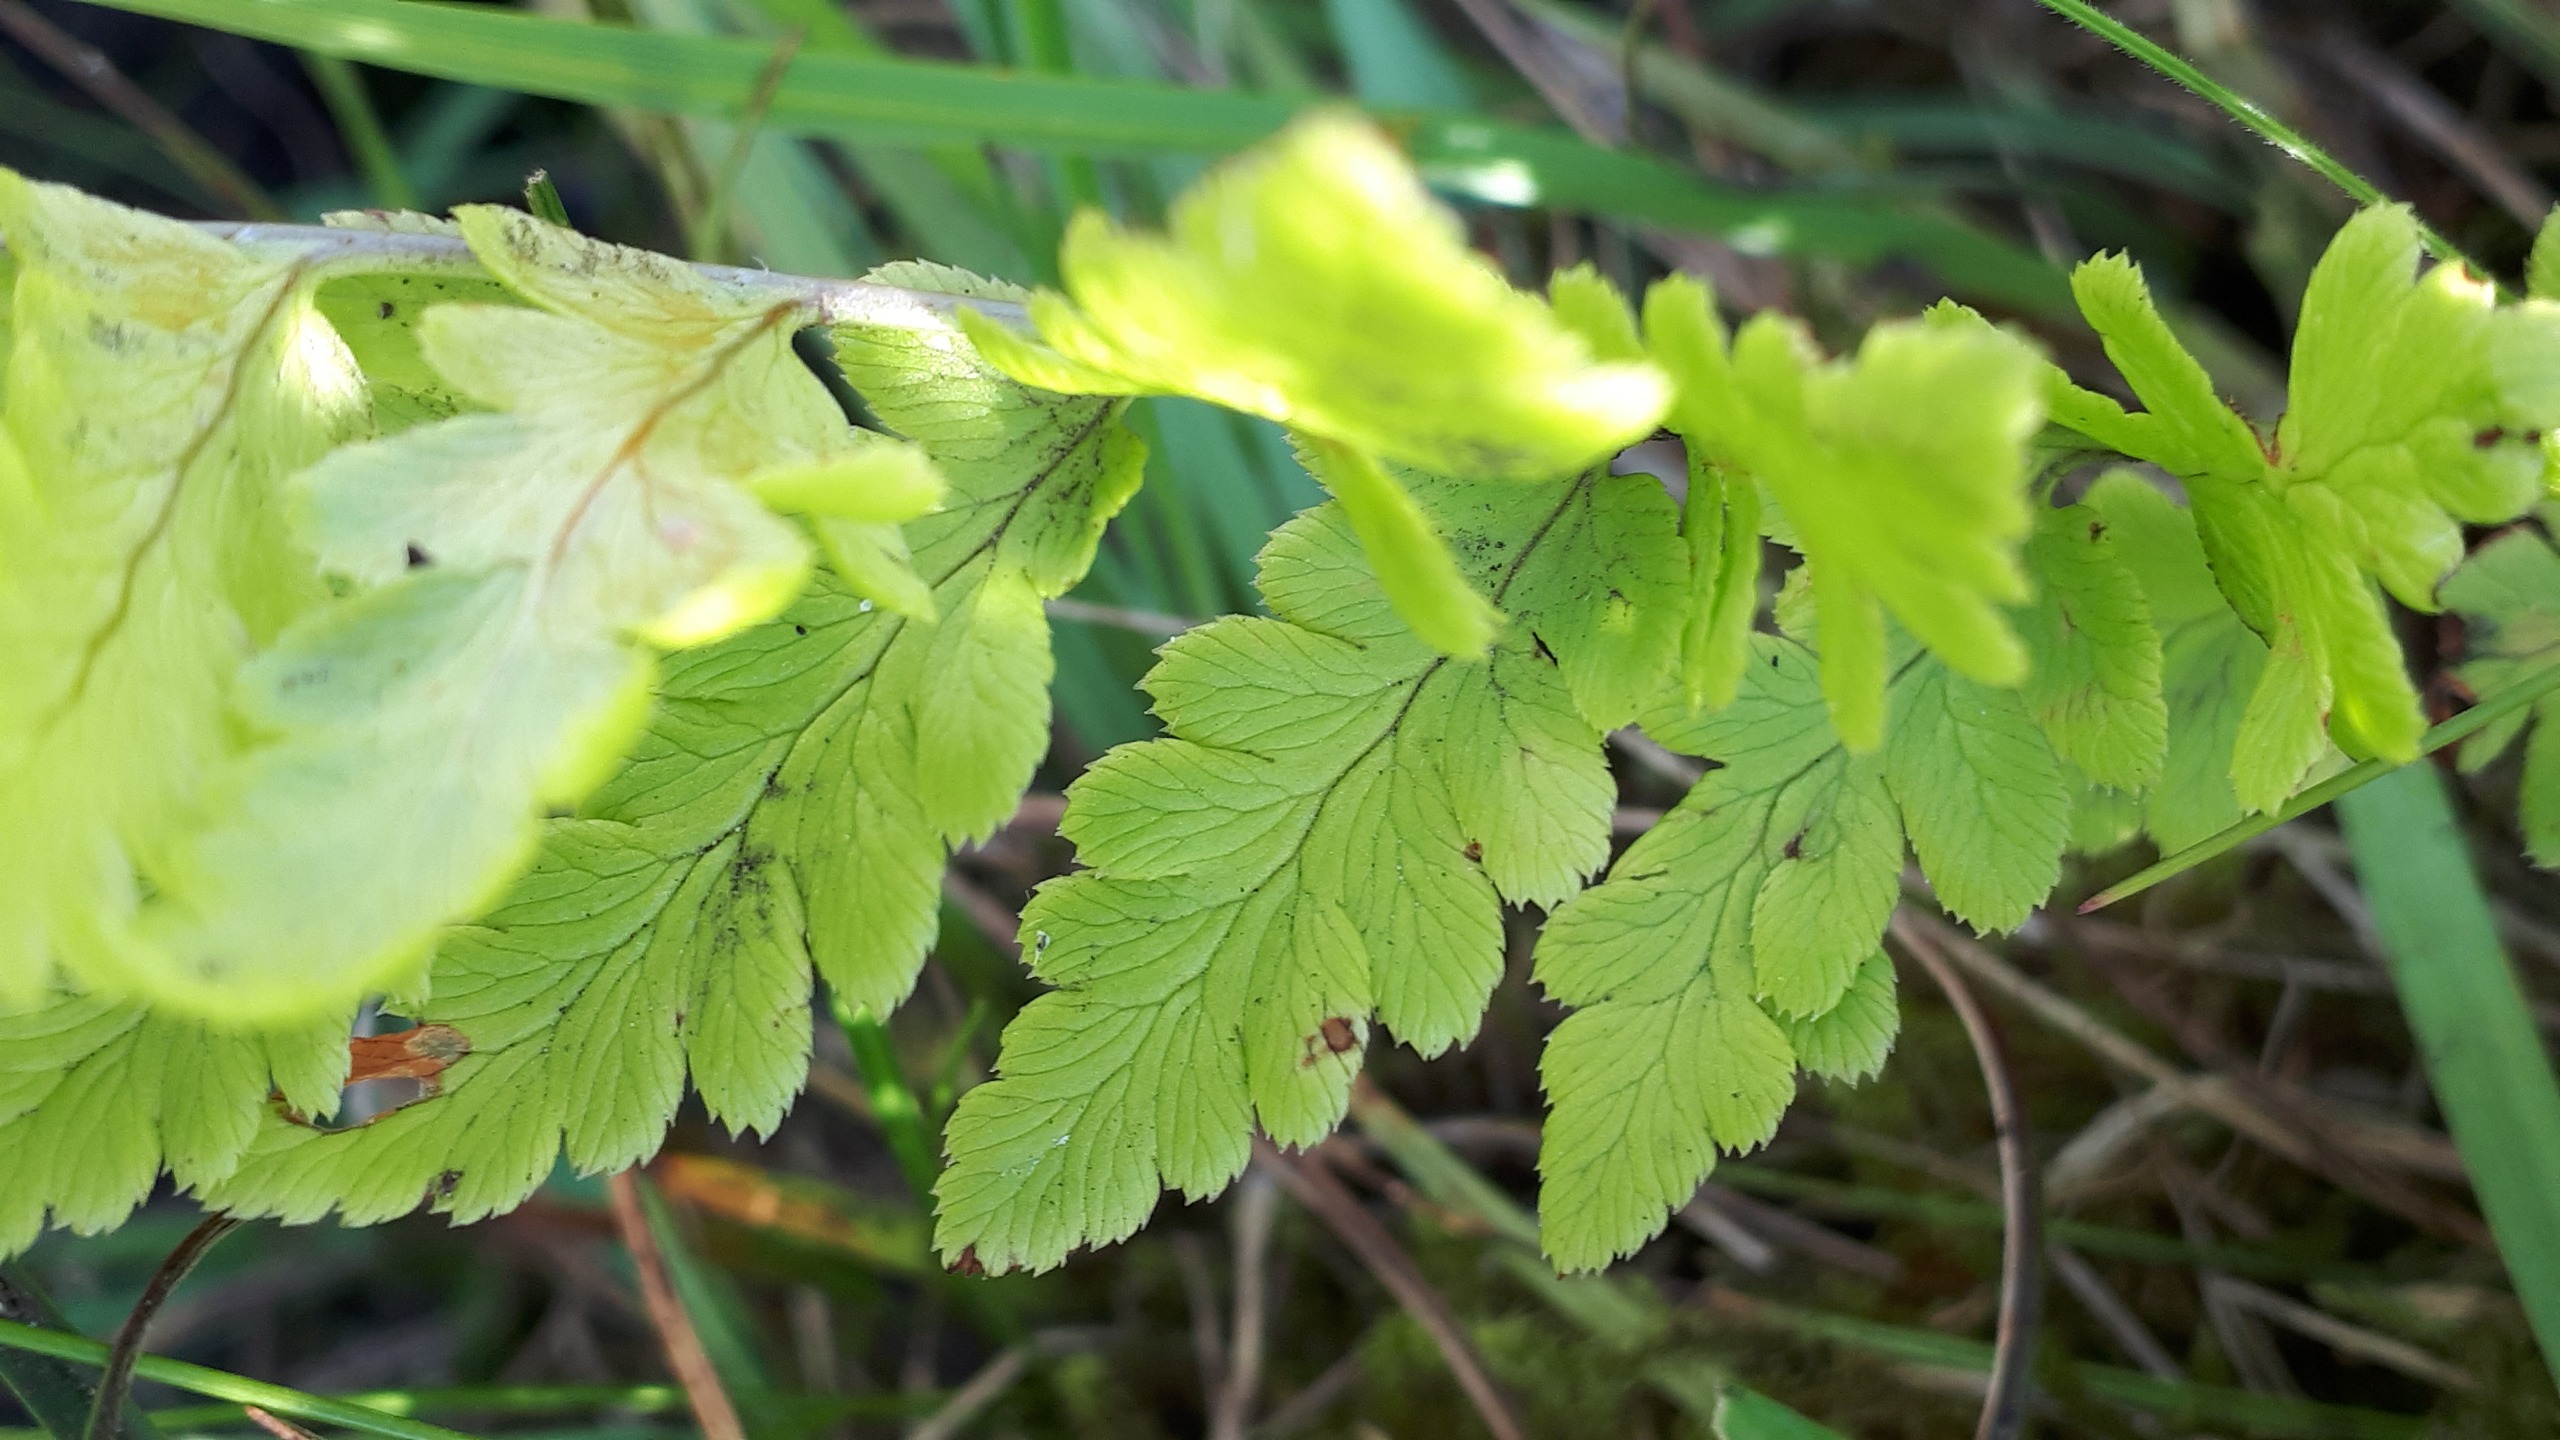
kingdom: Plantae
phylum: Tracheophyta
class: Polypodiopsida
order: Polypodiales
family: Dryopteridaceae
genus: Dryopteris
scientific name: Dryopteris cristata
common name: Butfinnet mangeløv
